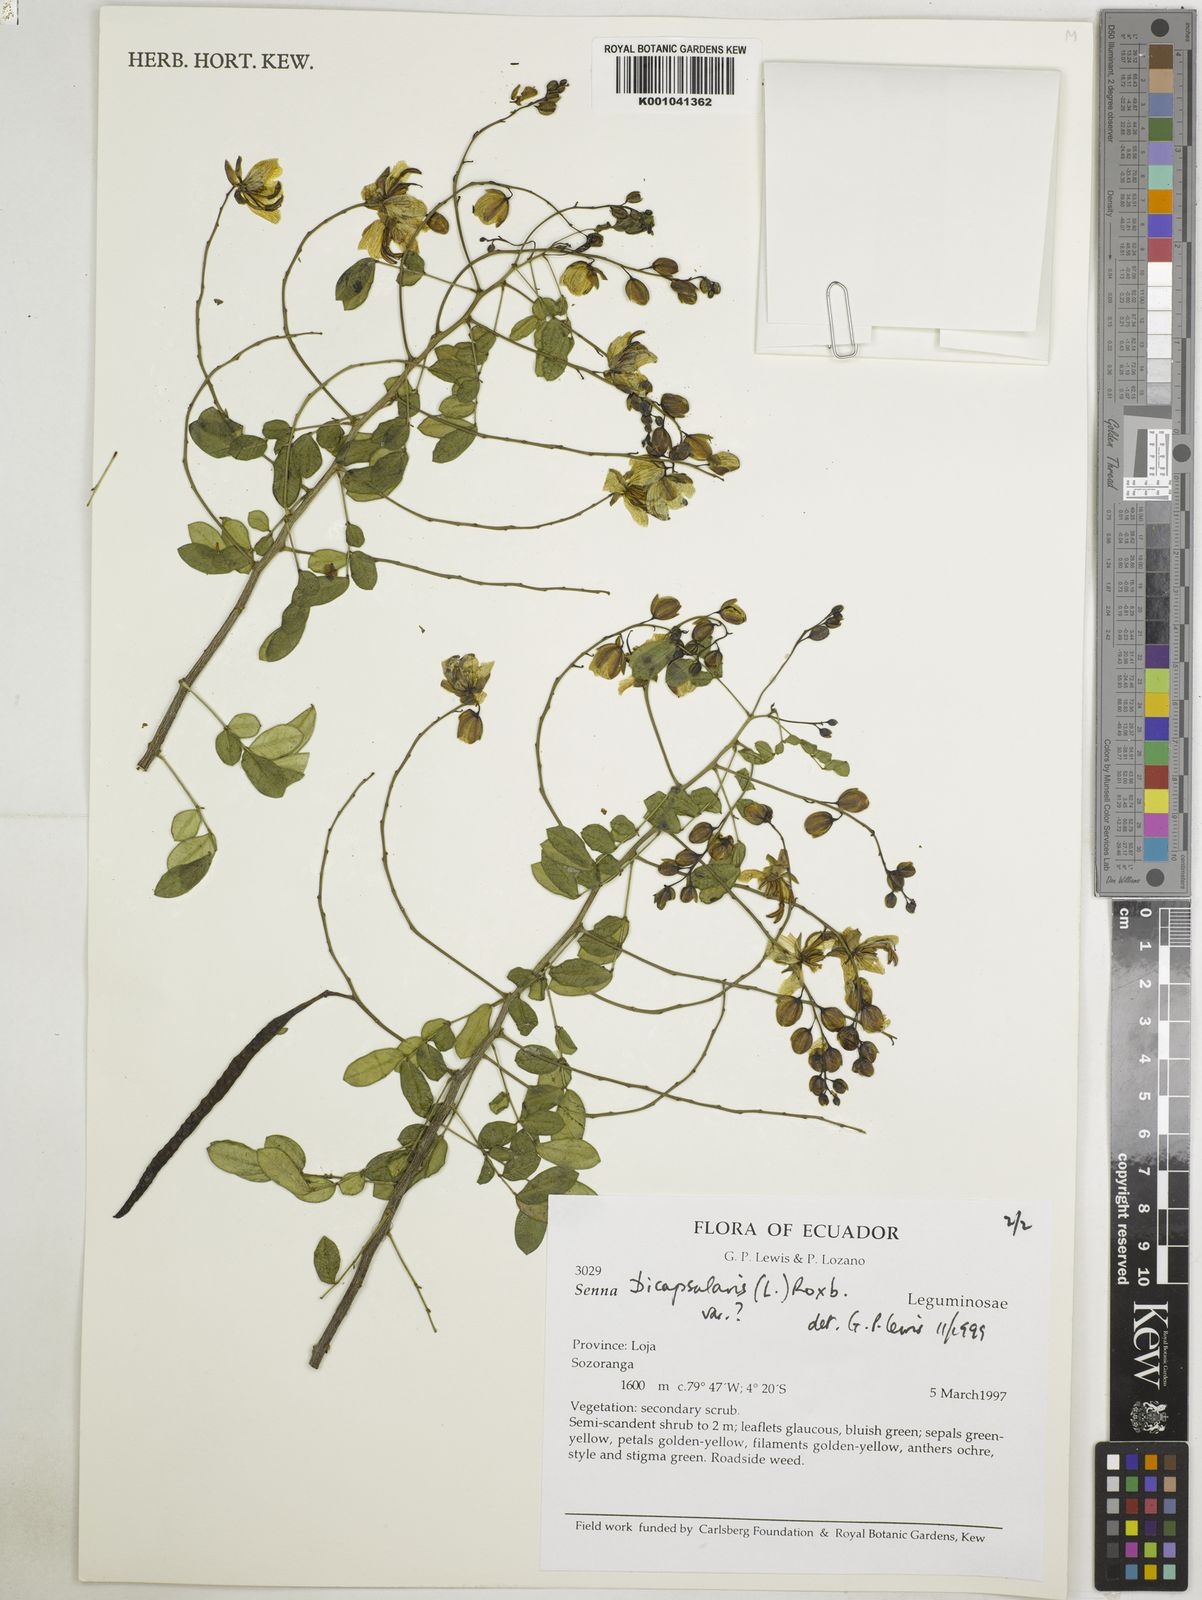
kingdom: Plantae
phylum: Tracheophyta
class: Magnoliopsida
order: Fabales
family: Fabaceae
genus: Senna
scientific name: Senna bicapsularis
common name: Christmasbush
